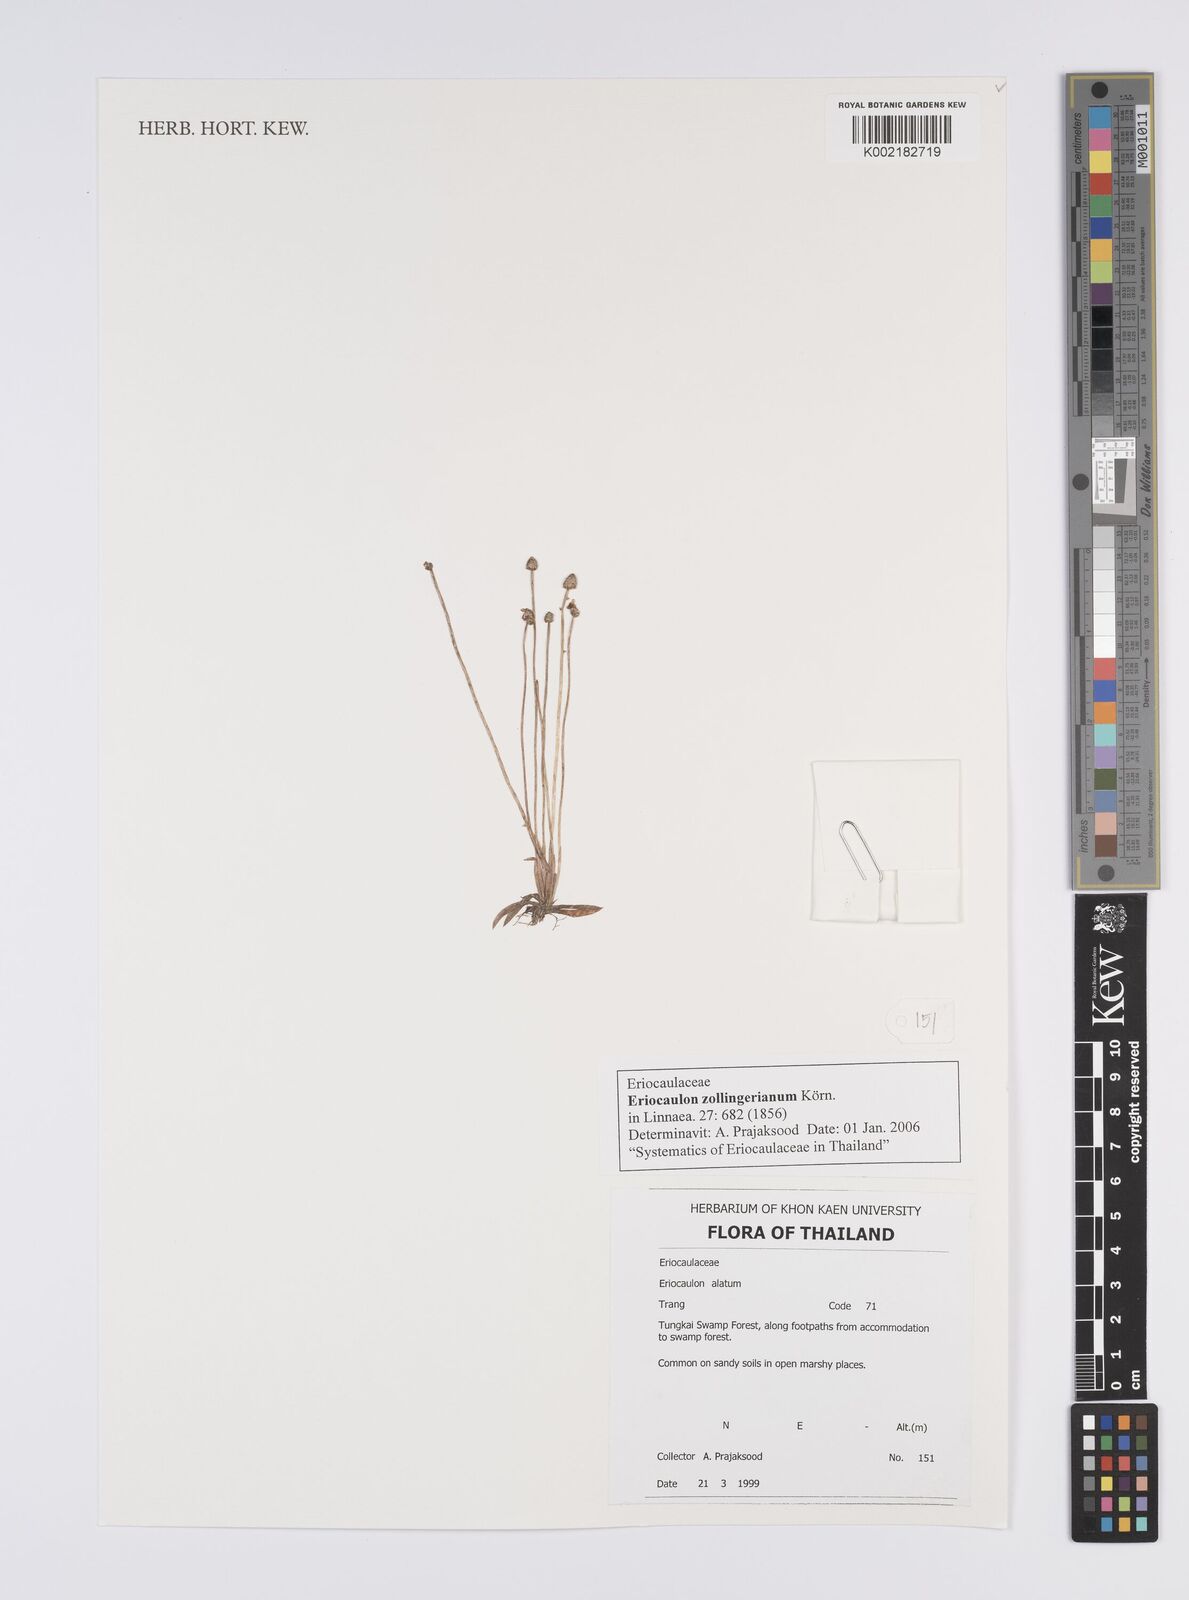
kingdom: Plantae
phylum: Tracheophyta
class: Liliopsida
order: Poales
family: Eriocaulaceae
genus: Eriocaulon
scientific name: Eriocaulon zollingerianum
